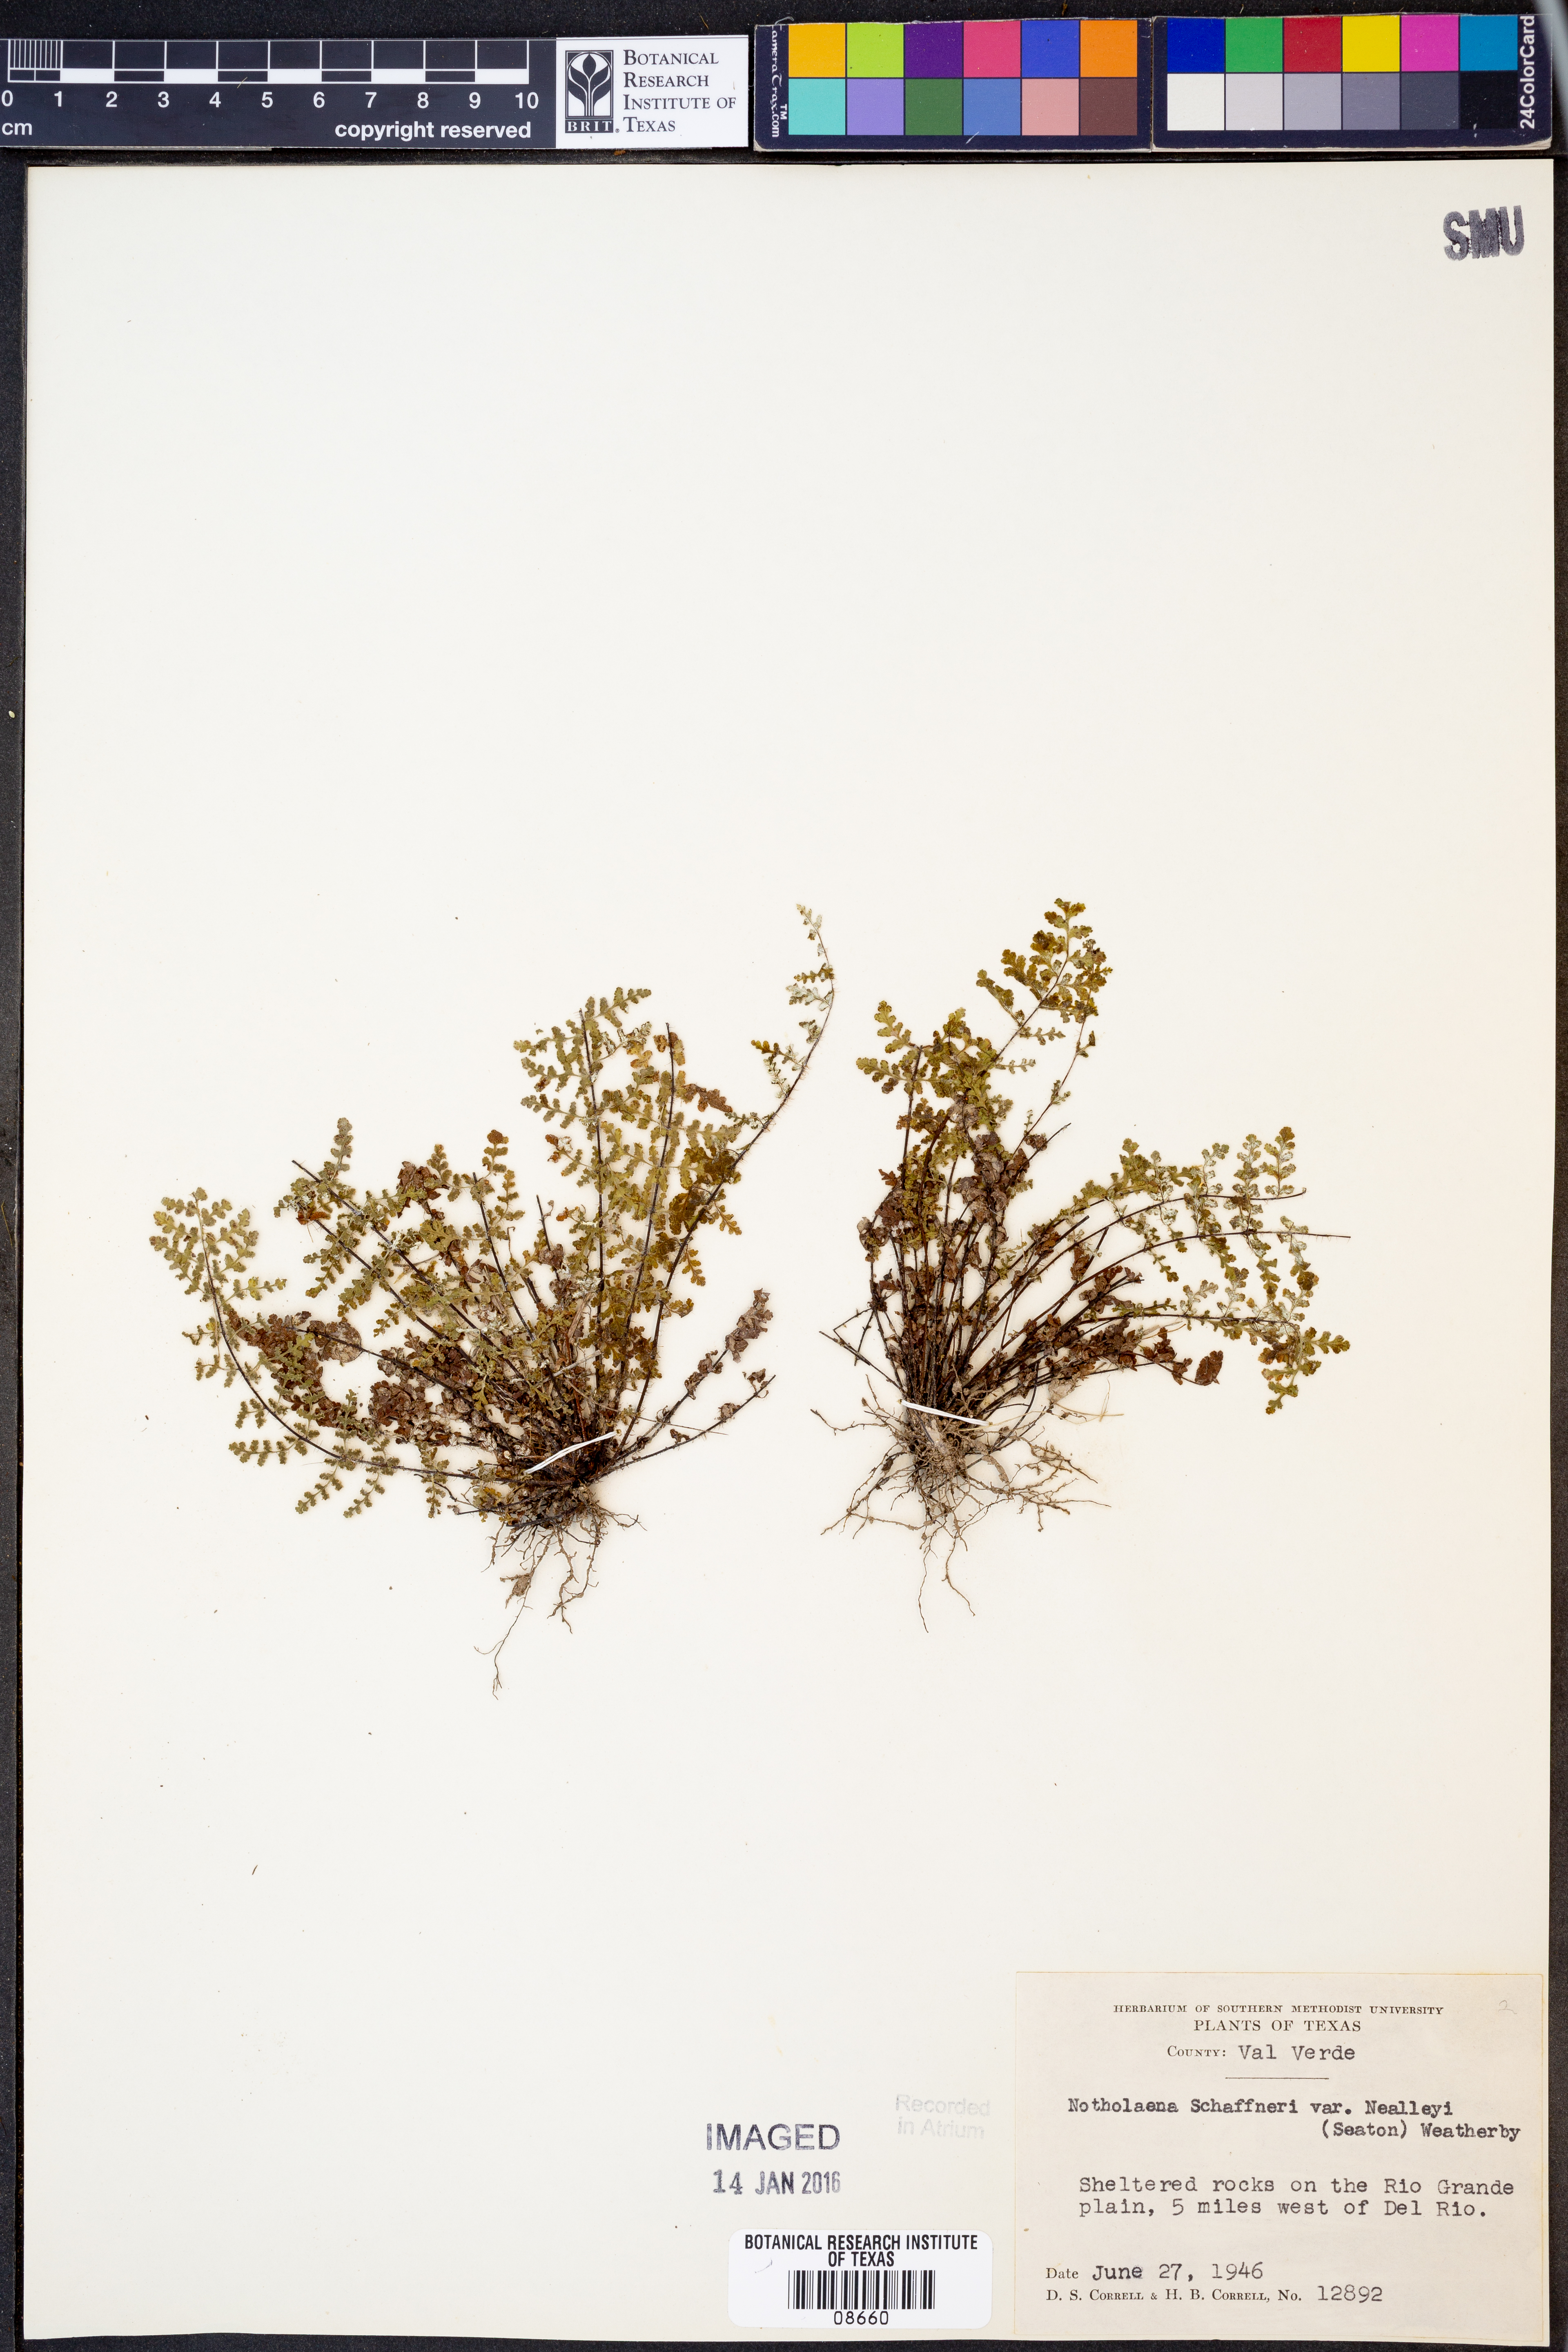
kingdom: Plantae
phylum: Tracheophyta
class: Polypodiopsida
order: Polypodiales
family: Pteridaceae
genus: Notholaena
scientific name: Notholaena schaffneri
